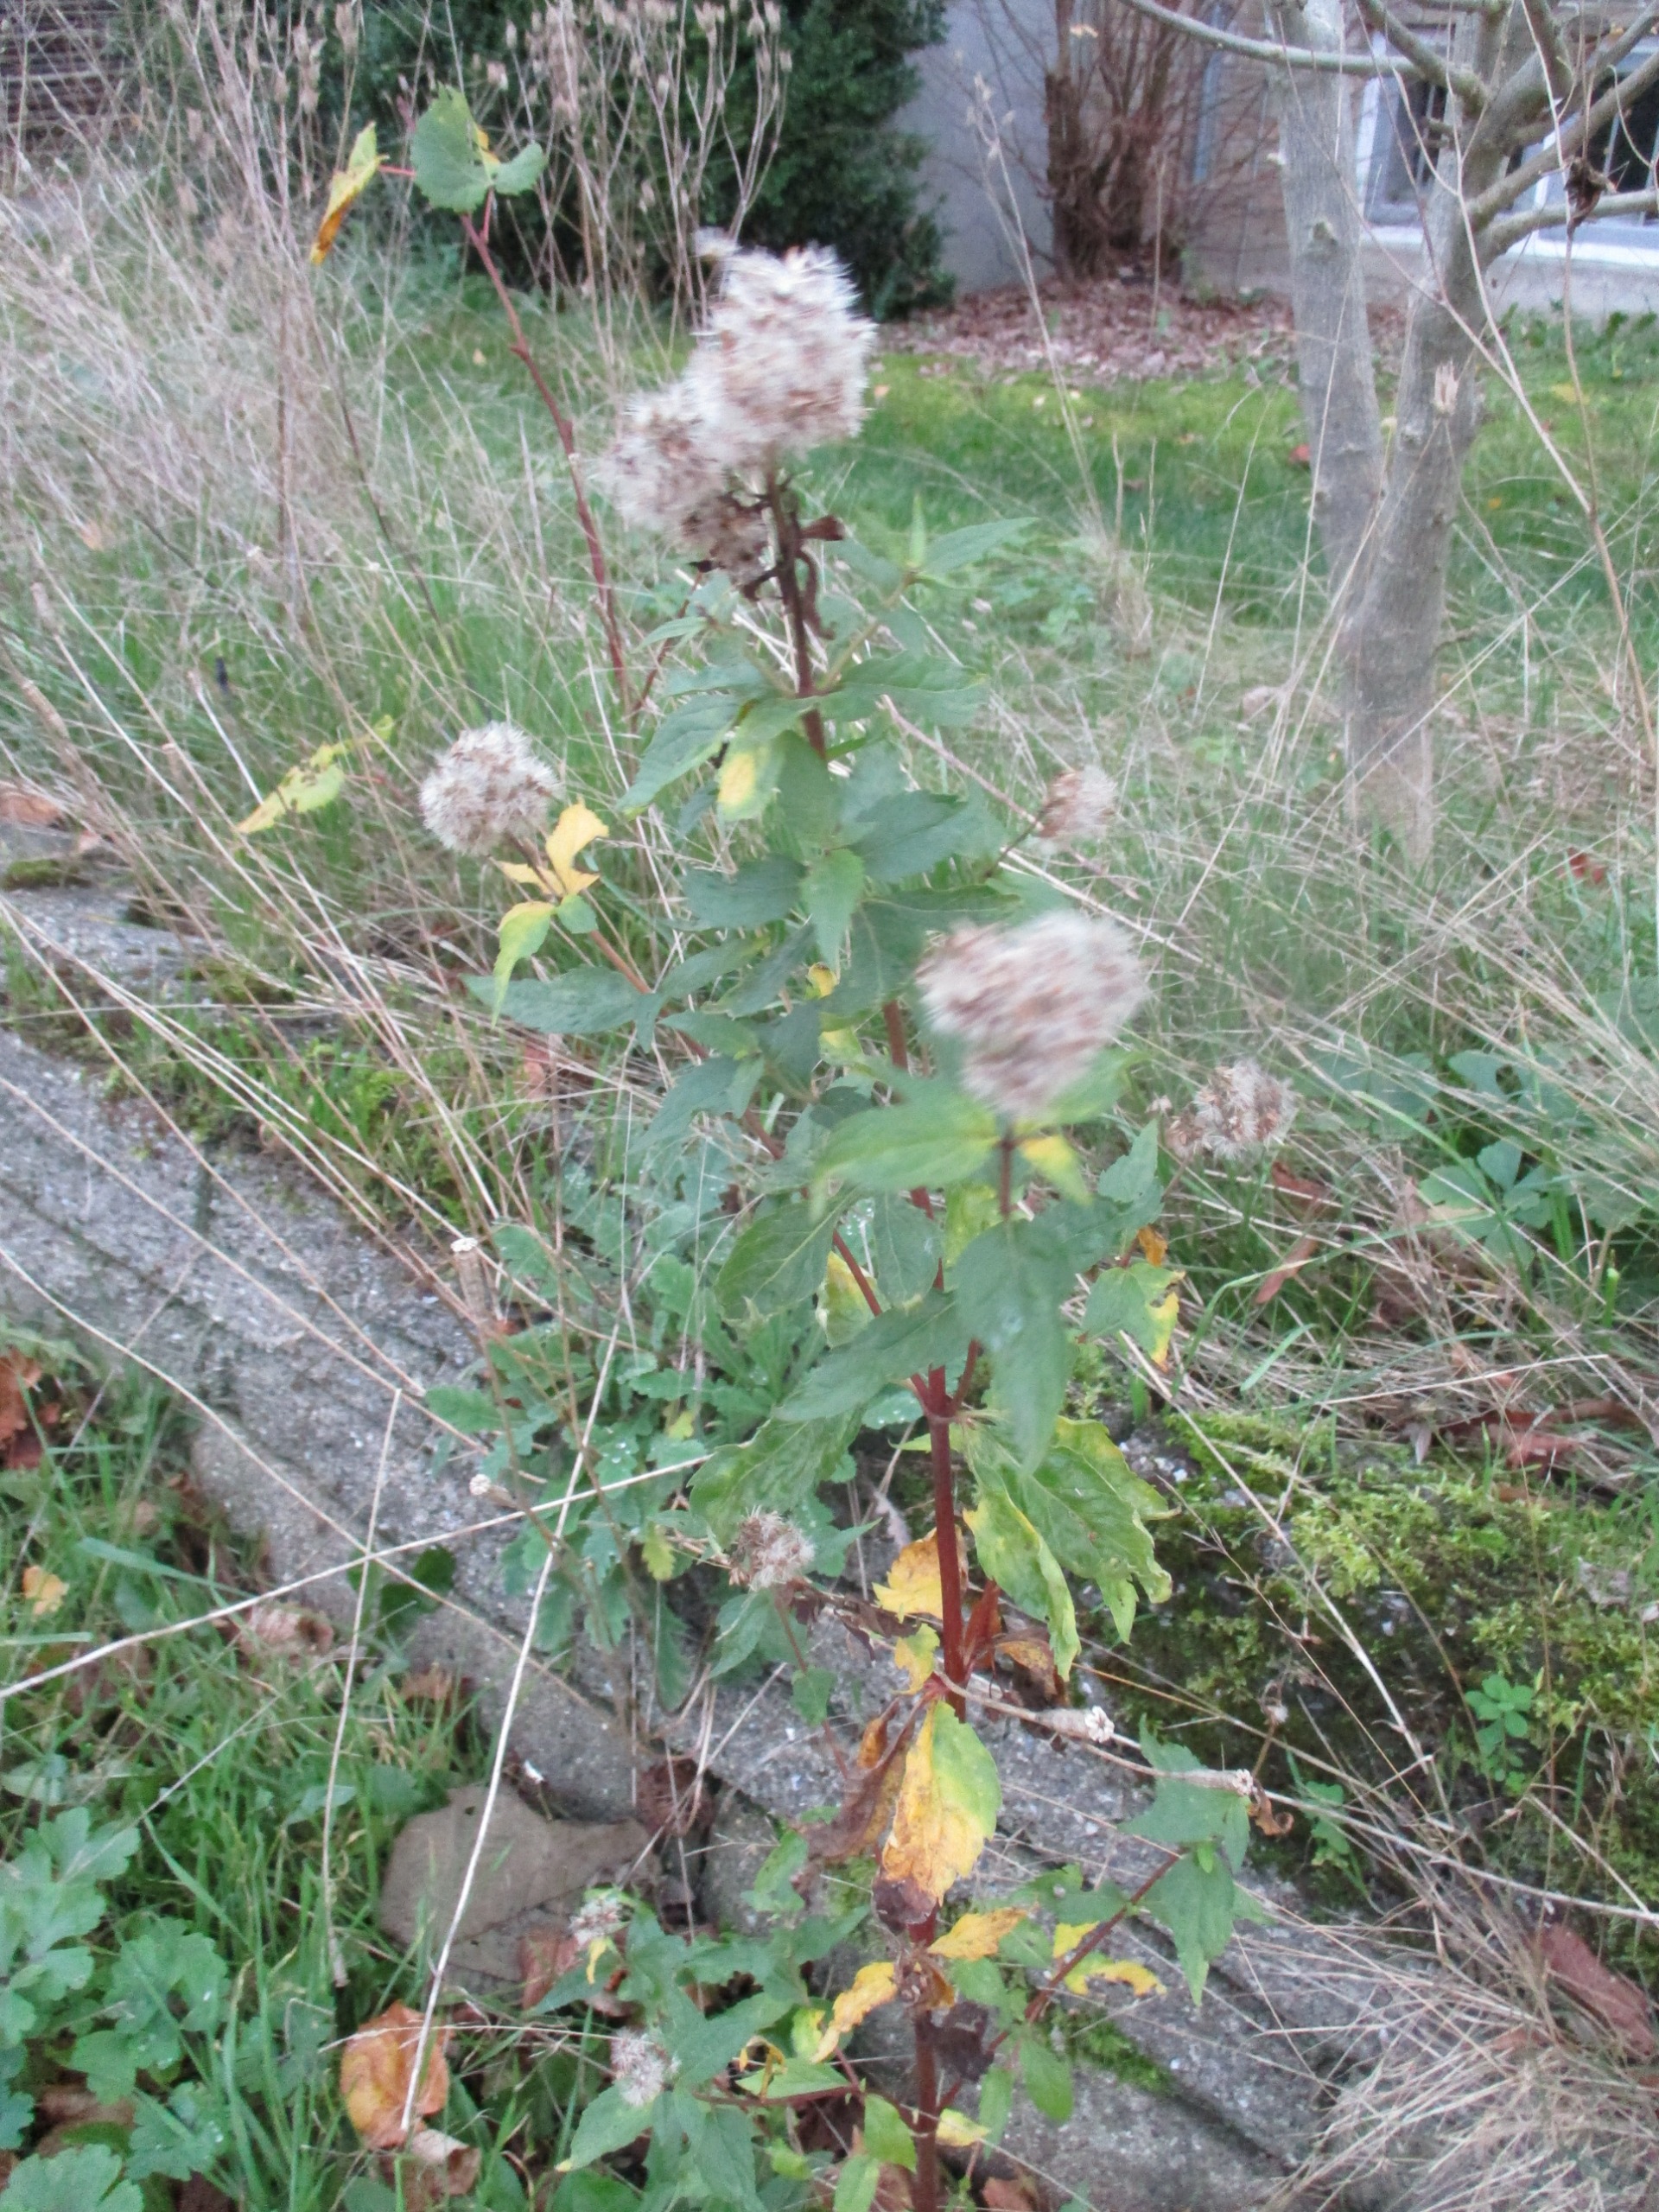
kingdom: Plantae
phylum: Tracheophyta
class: Magnoliopsida
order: Asterales
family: Asteraceae
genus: Eupatorium
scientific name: Eupatorium cannabinum
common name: Hjortetrøst
